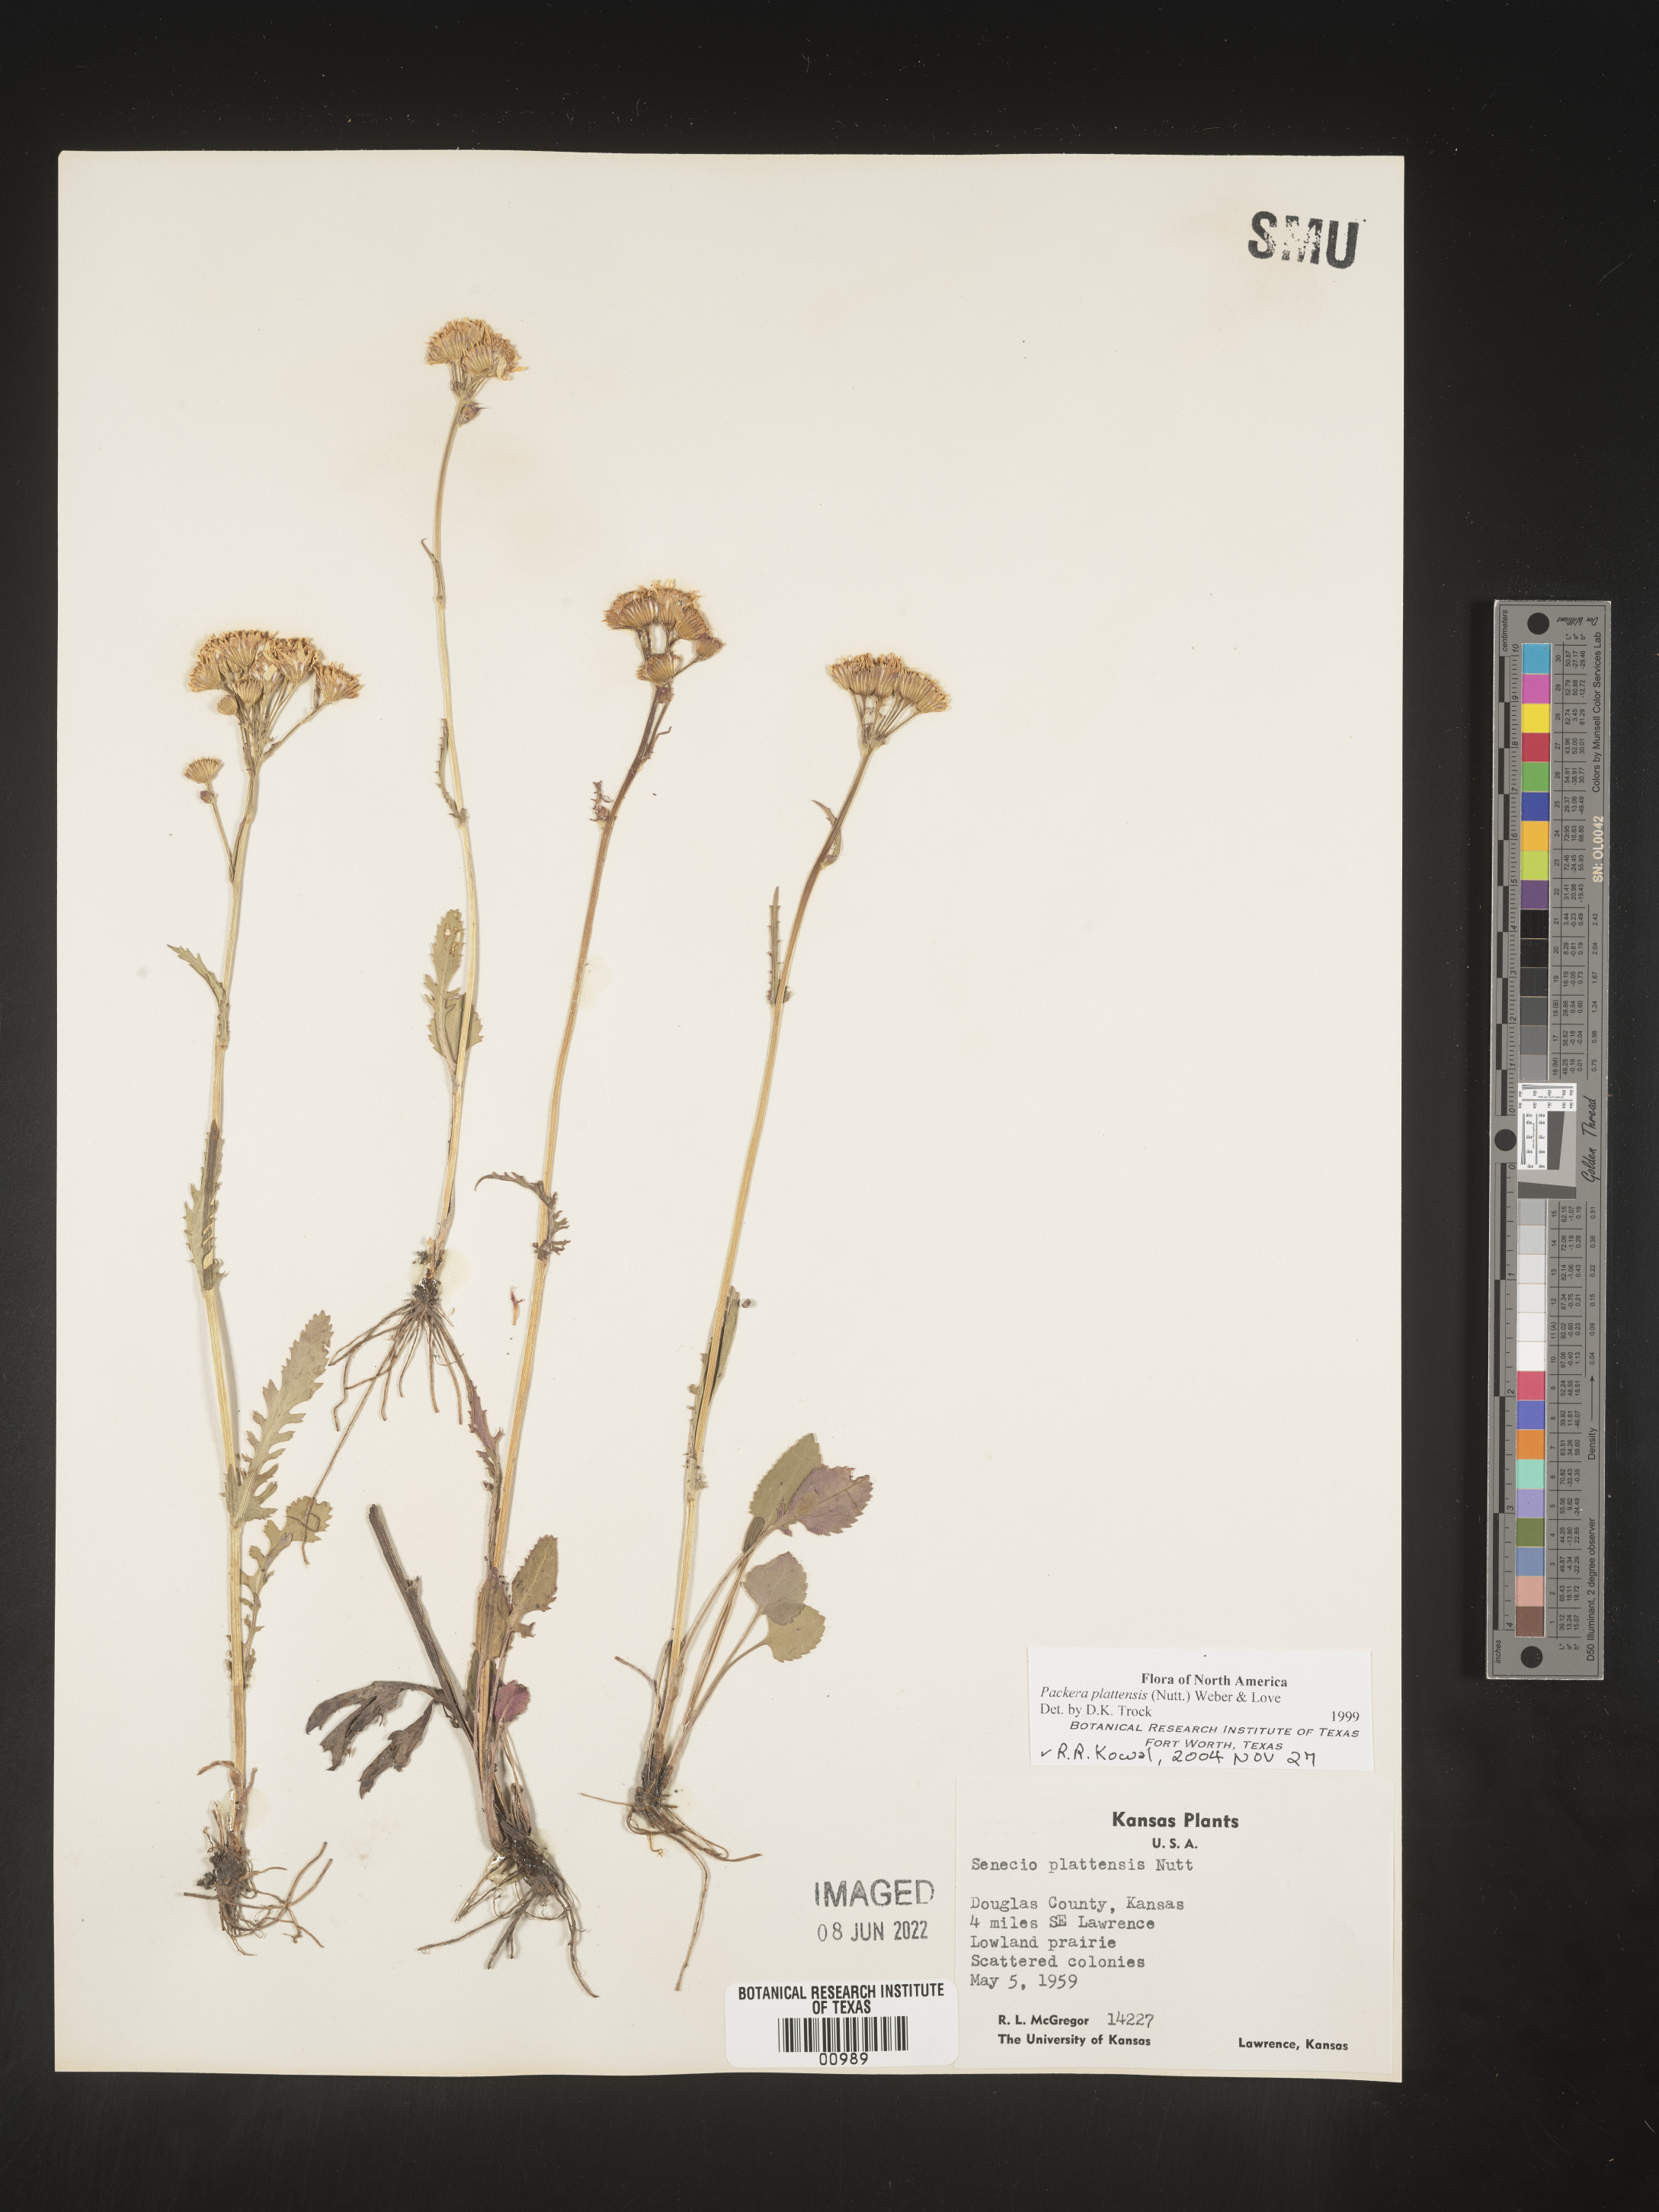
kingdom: Plantae
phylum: Tracheophyta
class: Magnoliopsida
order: Asterales
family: Asteraceae
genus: Packera
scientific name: Packera plattensis
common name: Prairie groundsel
